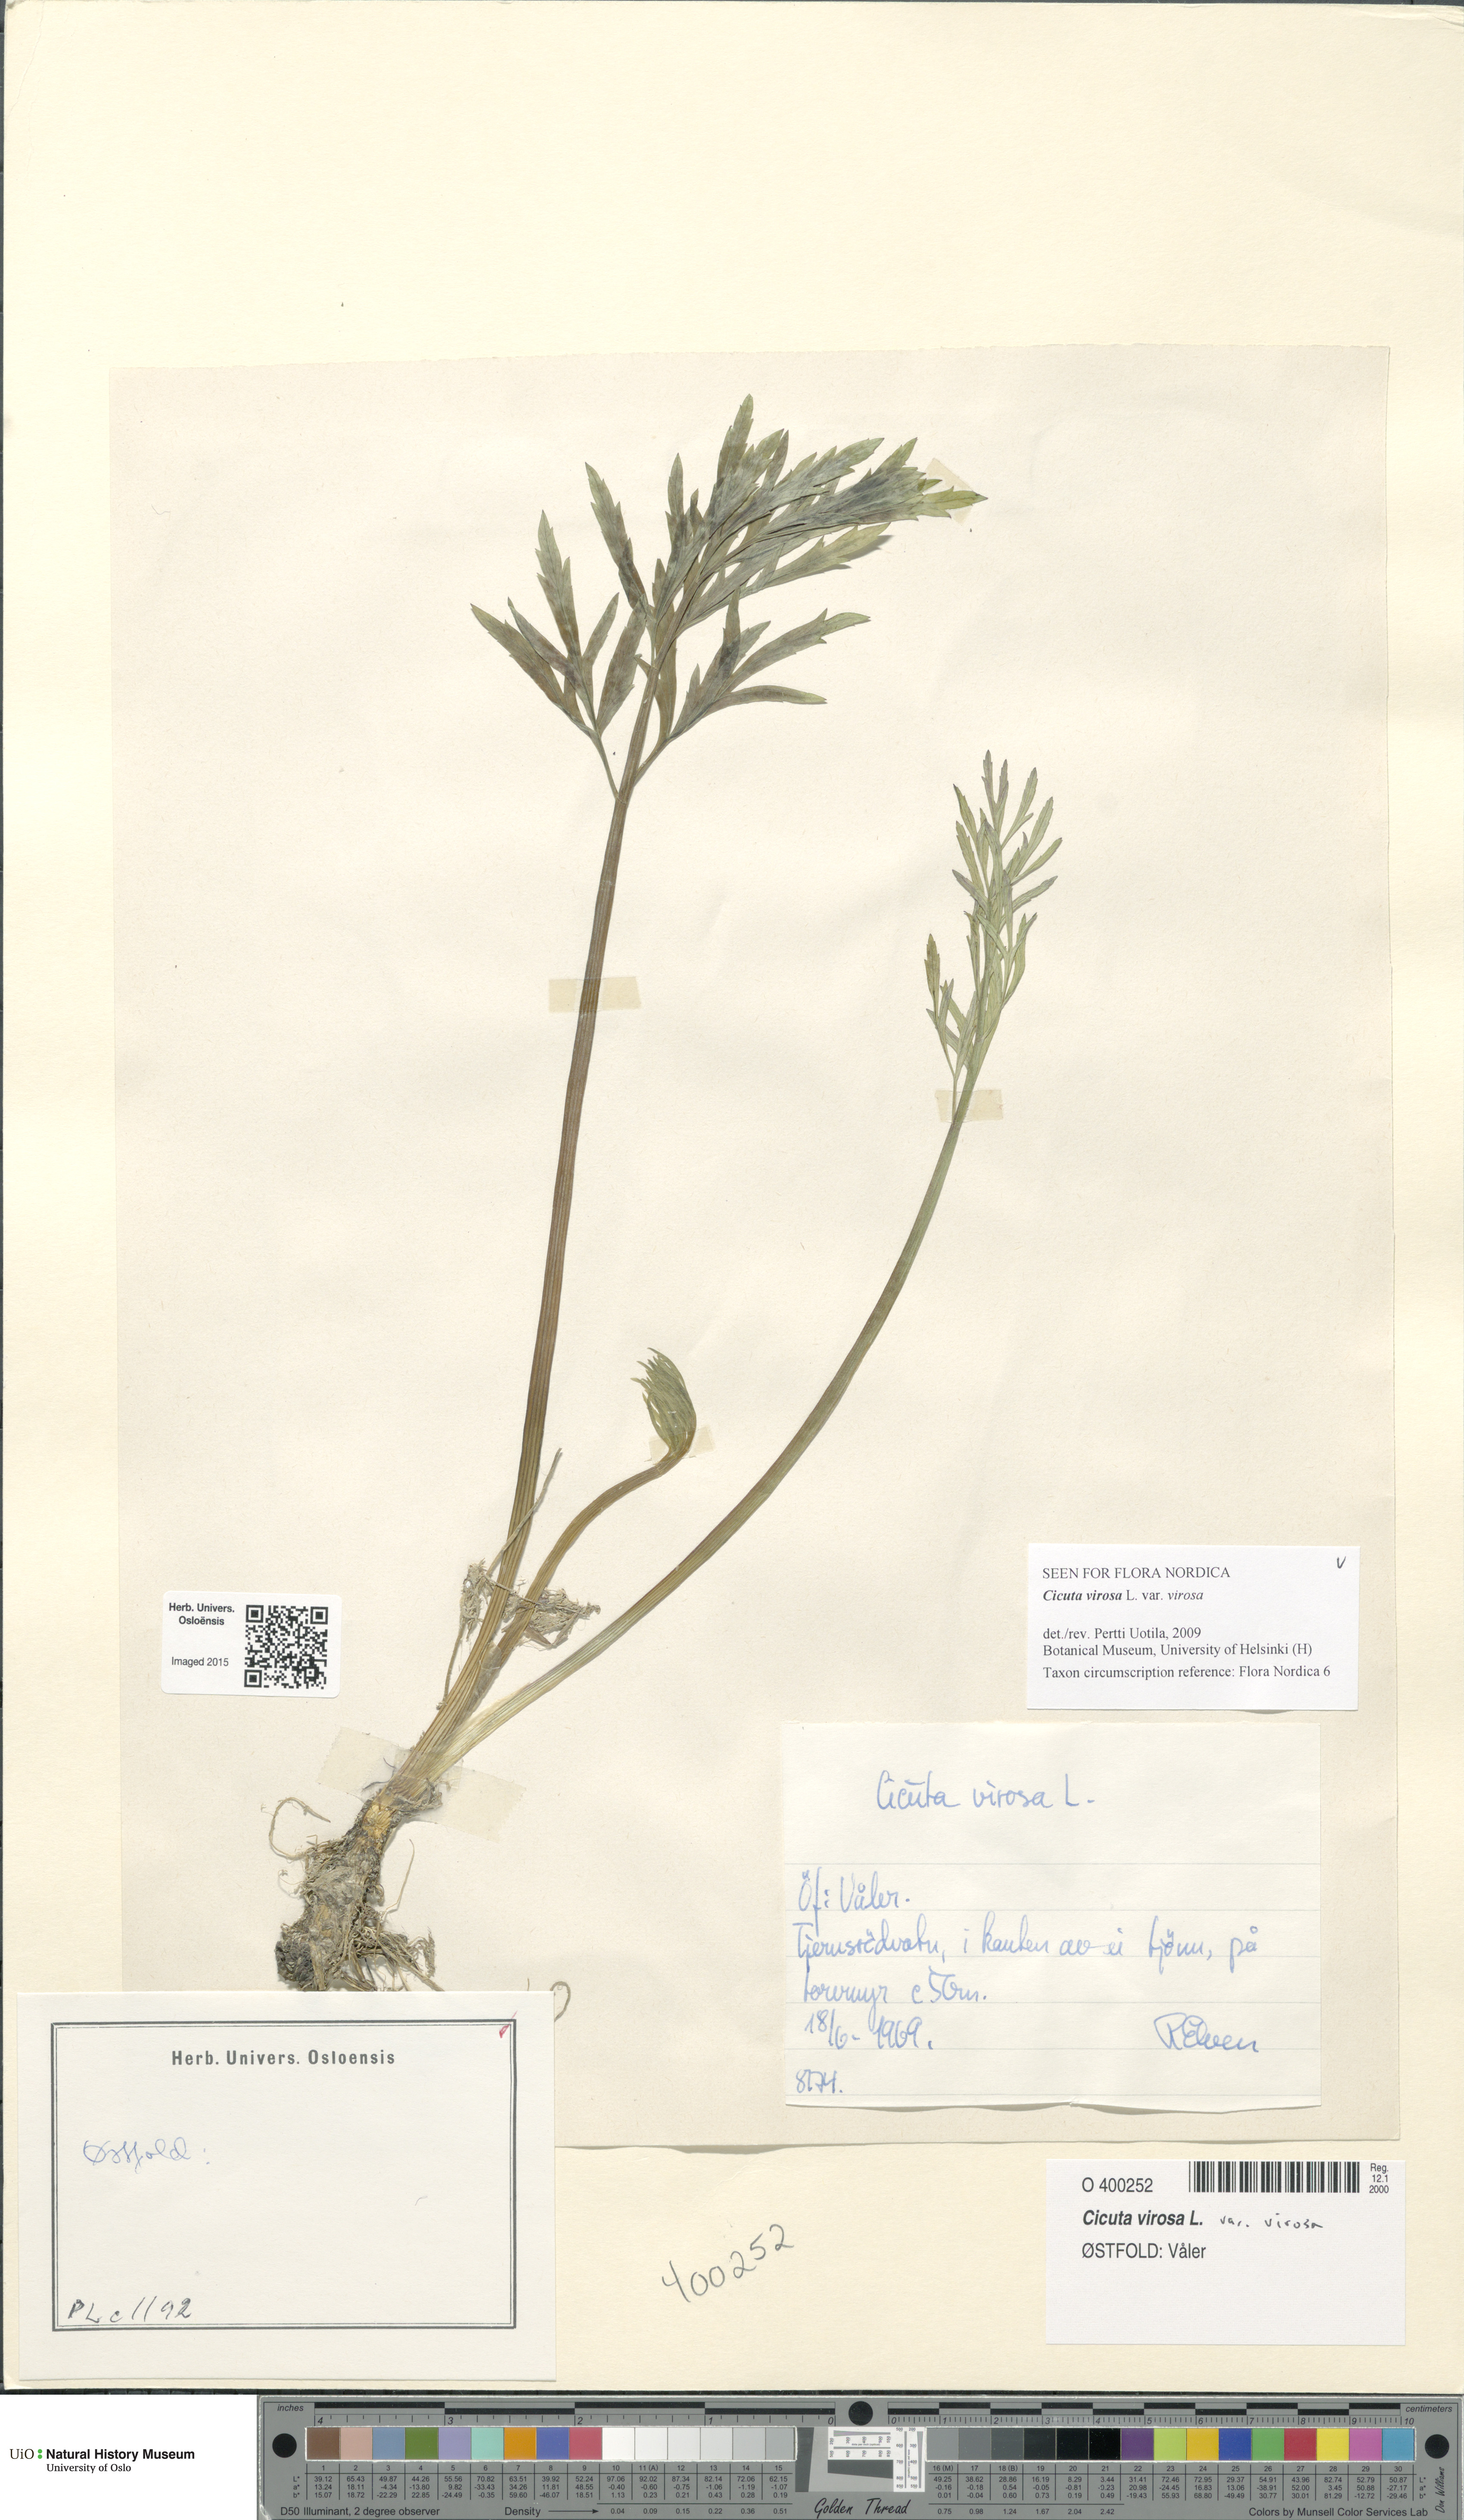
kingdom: Plantae
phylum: Tracheophyta
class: Magnoliopsida
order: Apiales
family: Apiaceae
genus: Cicuta
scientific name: Cicuta virosa
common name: Cowbane
